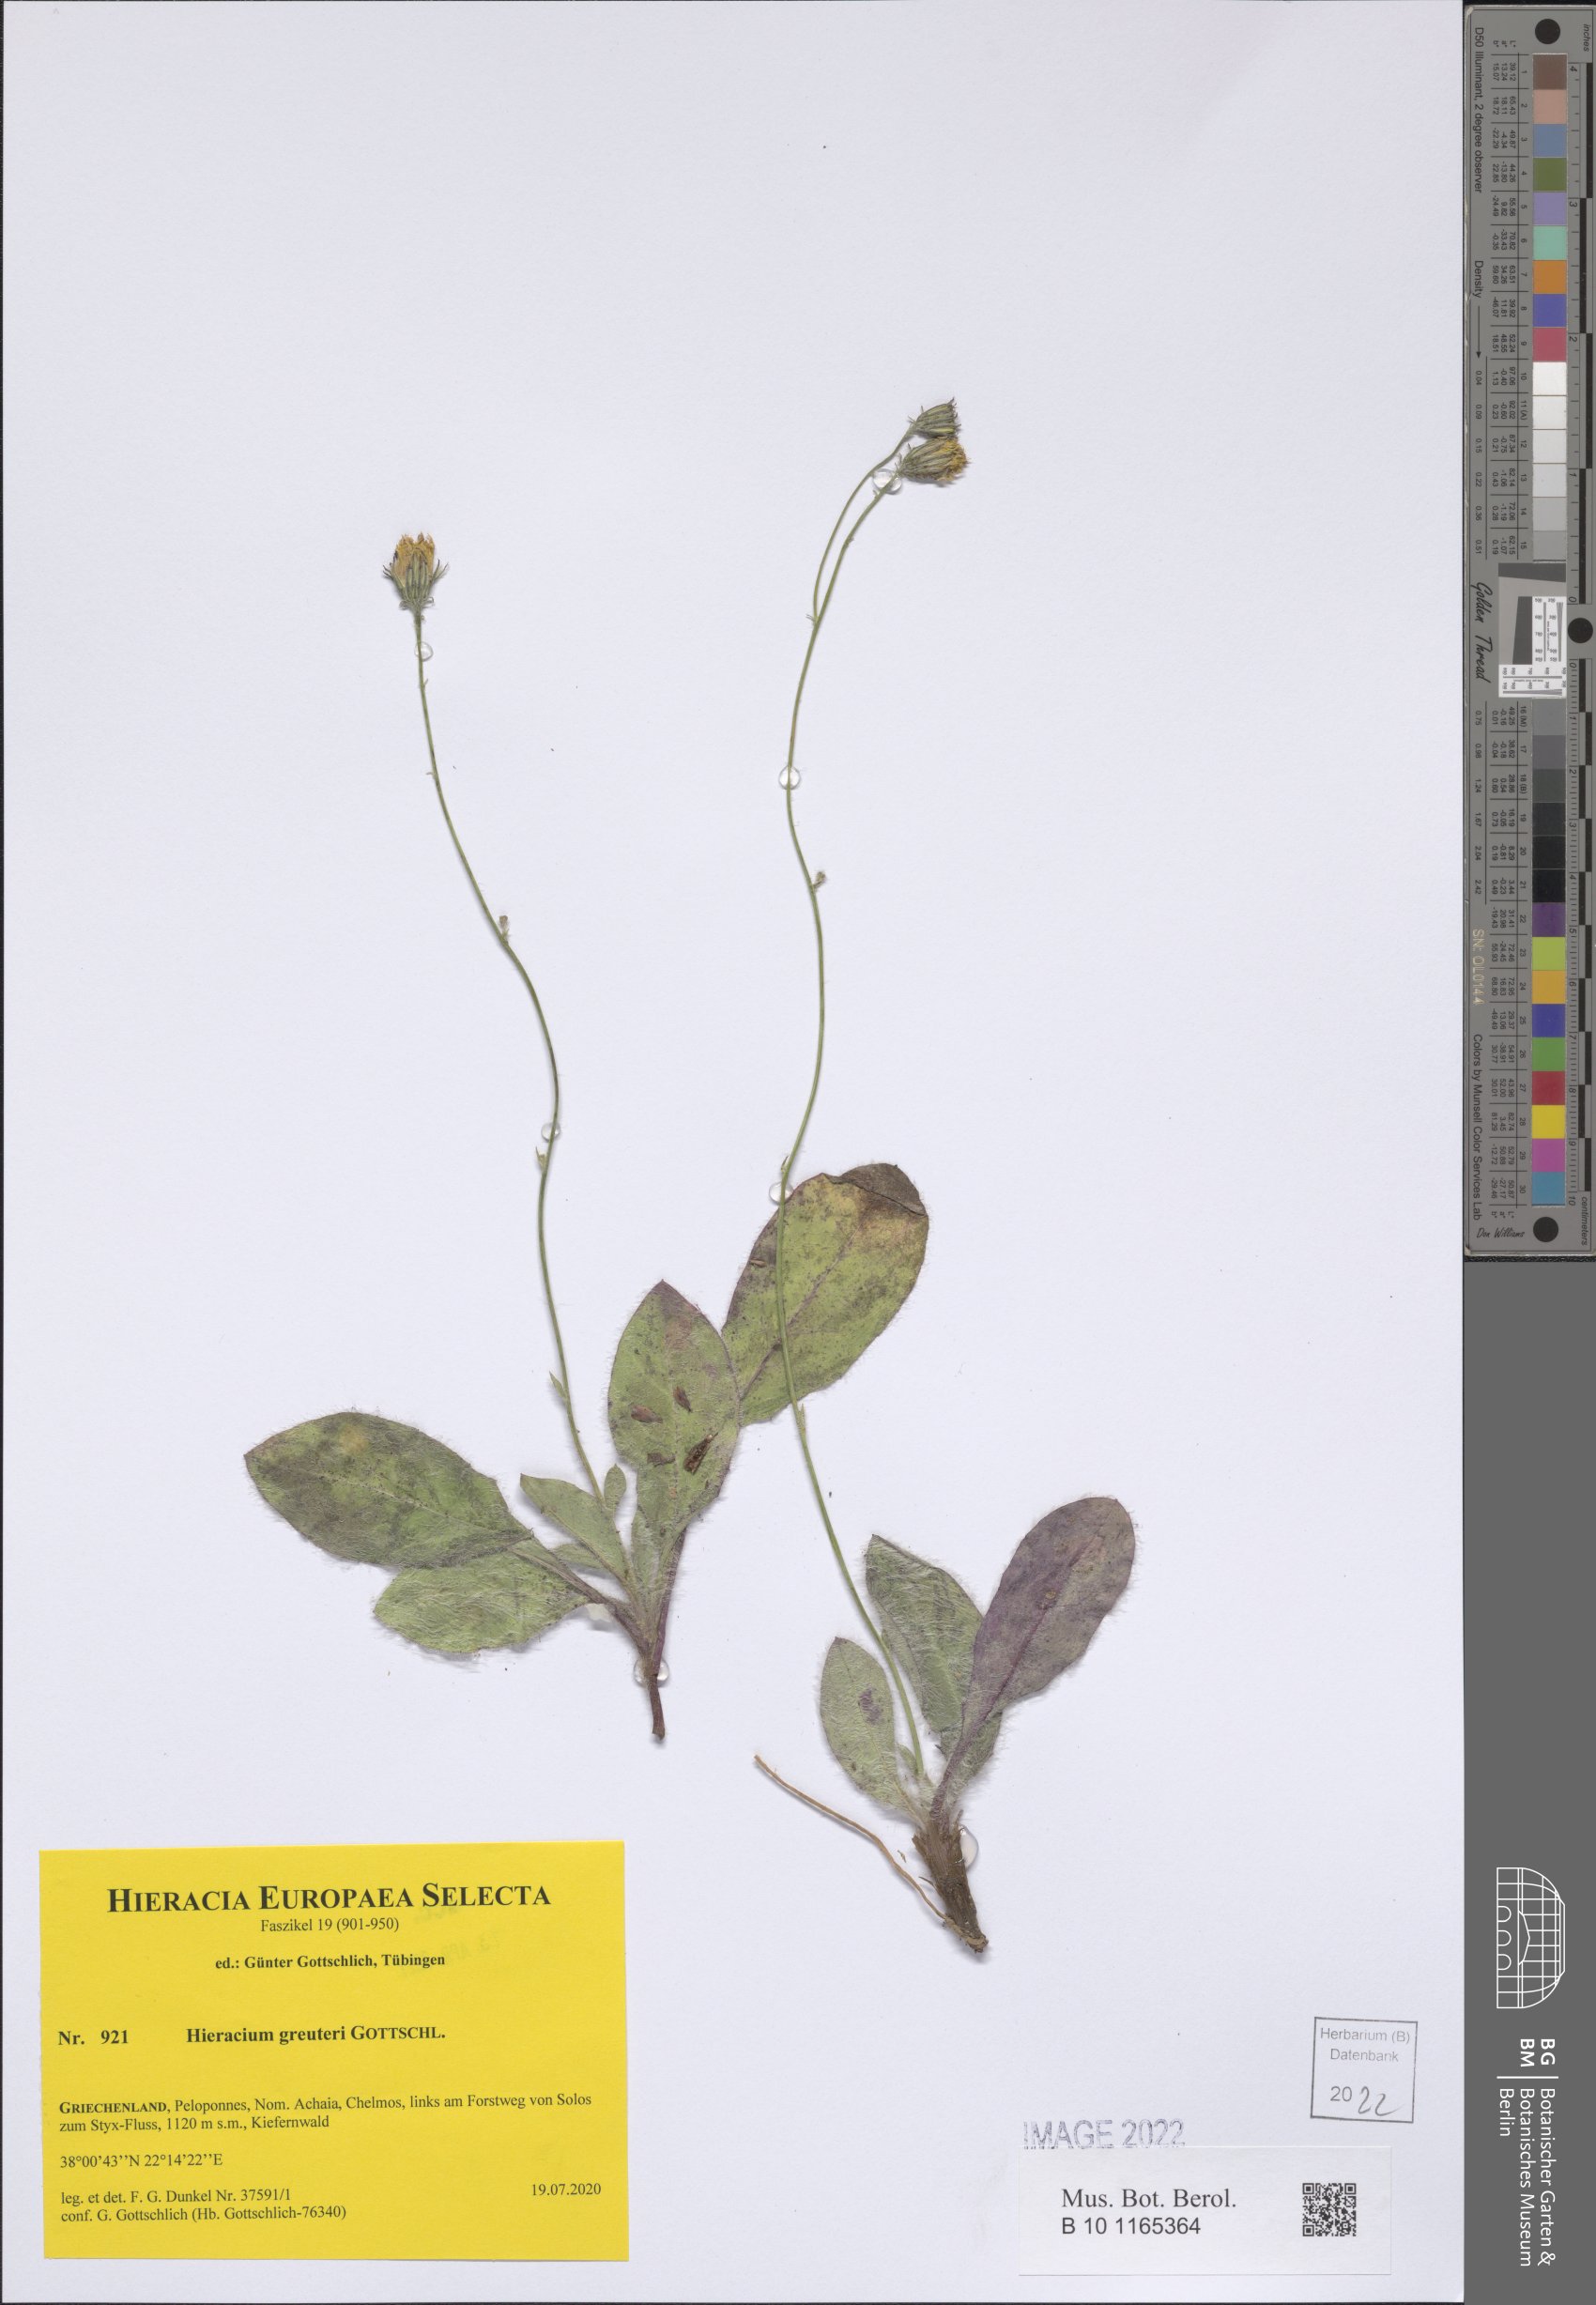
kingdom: Plantae
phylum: Tracheophyta
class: Magnoliopsida
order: Asterales
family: Asteraceae
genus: Hieracium
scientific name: Hieracium greuteri
